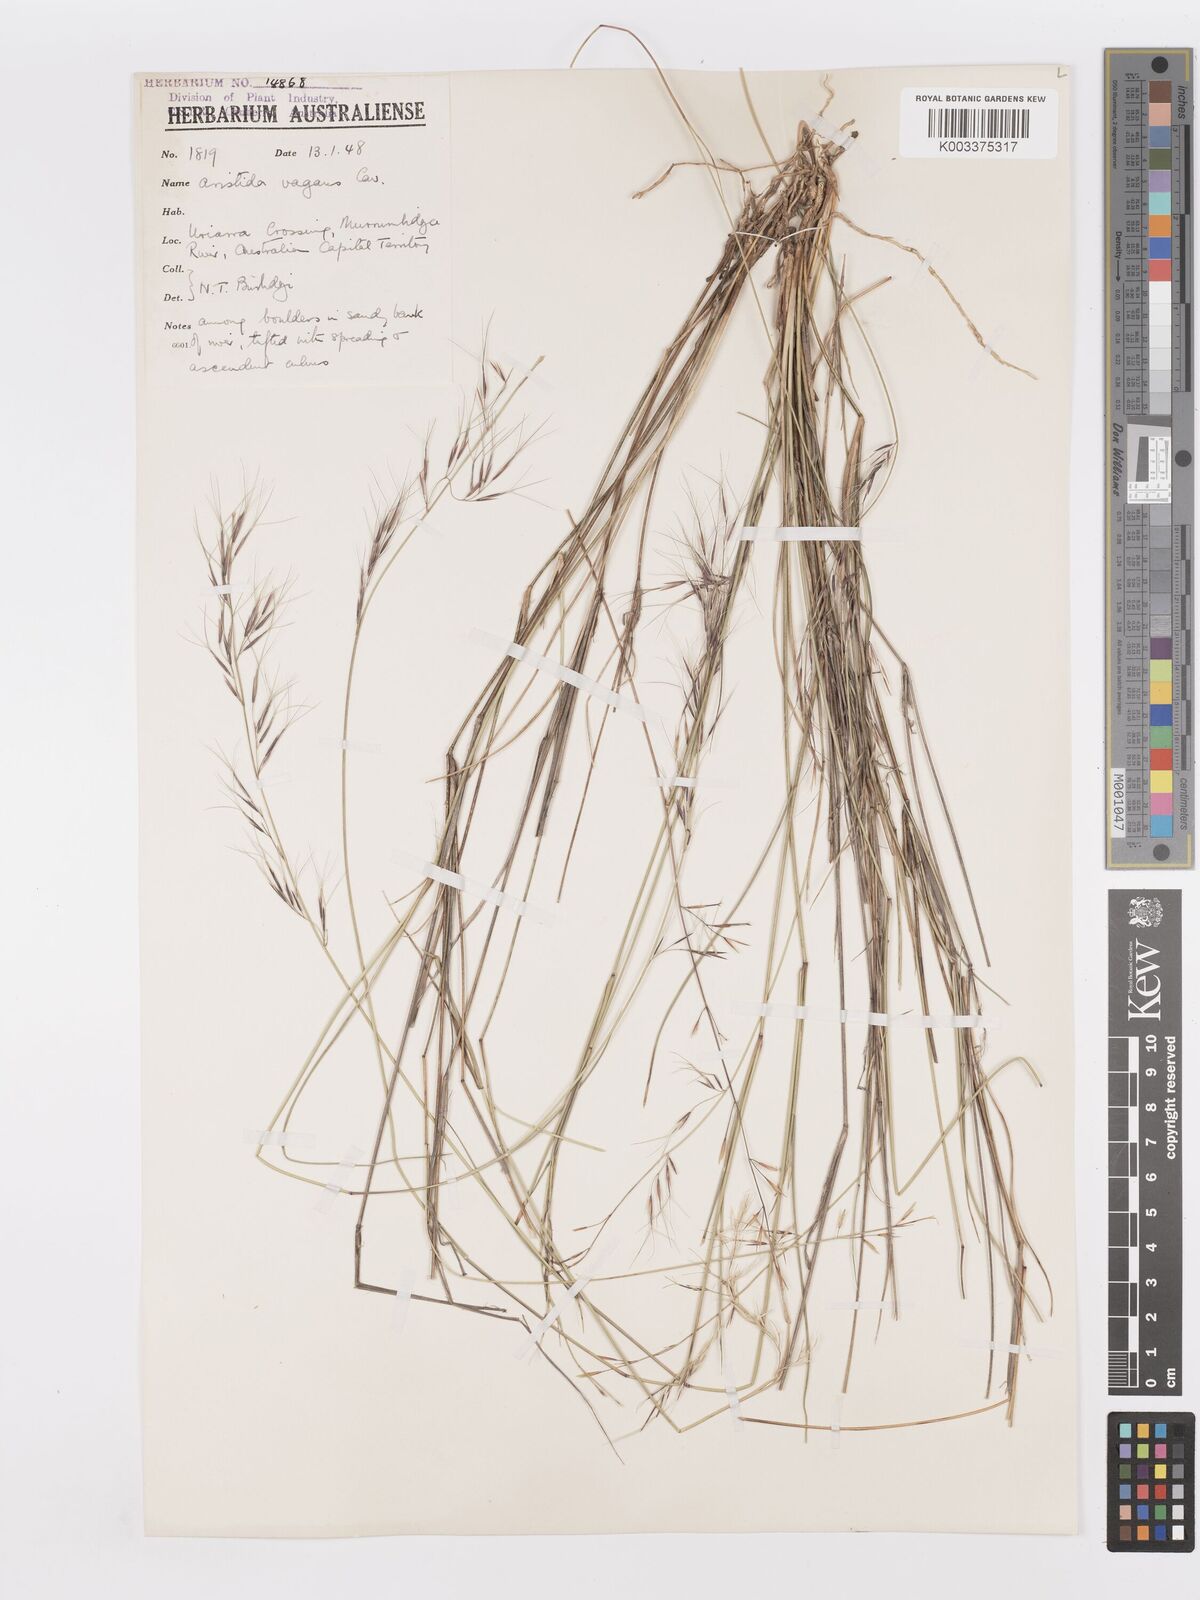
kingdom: Plantae
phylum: Tracheophyta
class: Liliopsida
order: Poales
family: Poaceae
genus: Aristida
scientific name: Aristida vagans
